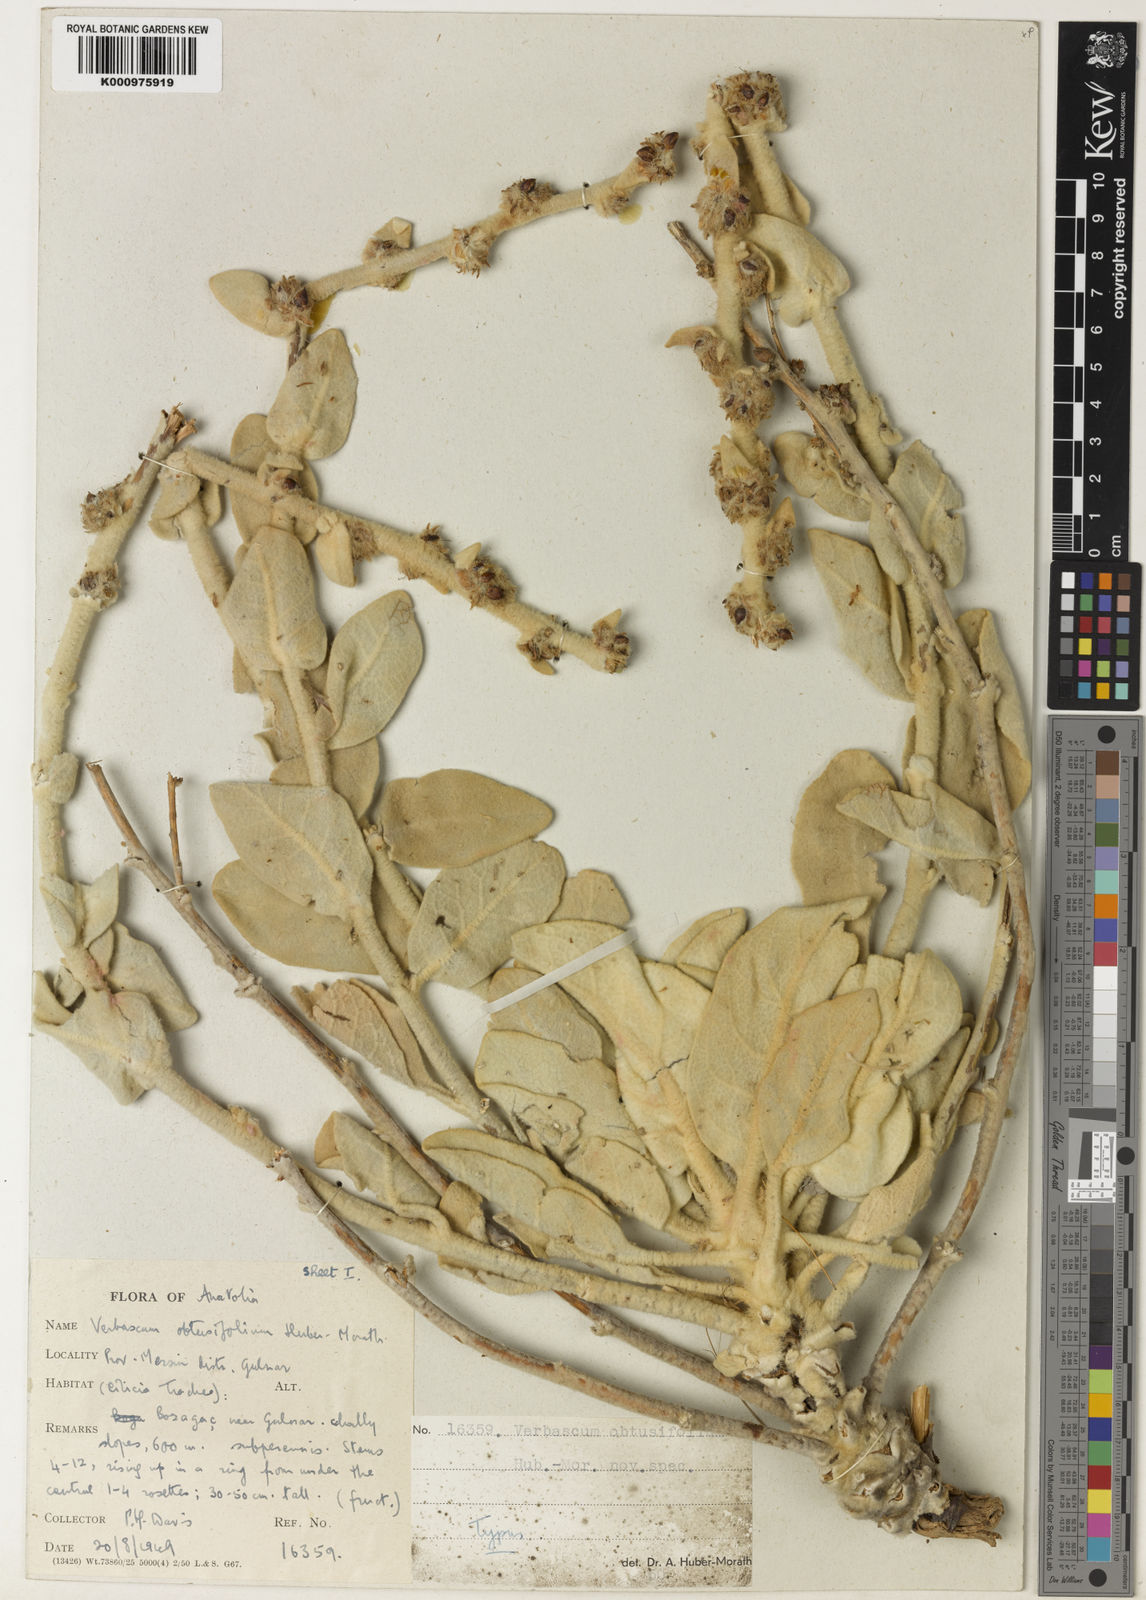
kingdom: Plantae
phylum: Tracheophyta
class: Magnoliopsida
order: Lamiales
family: Scrophulariaceae
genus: Verbascum
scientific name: Verbascum obtusifolium
